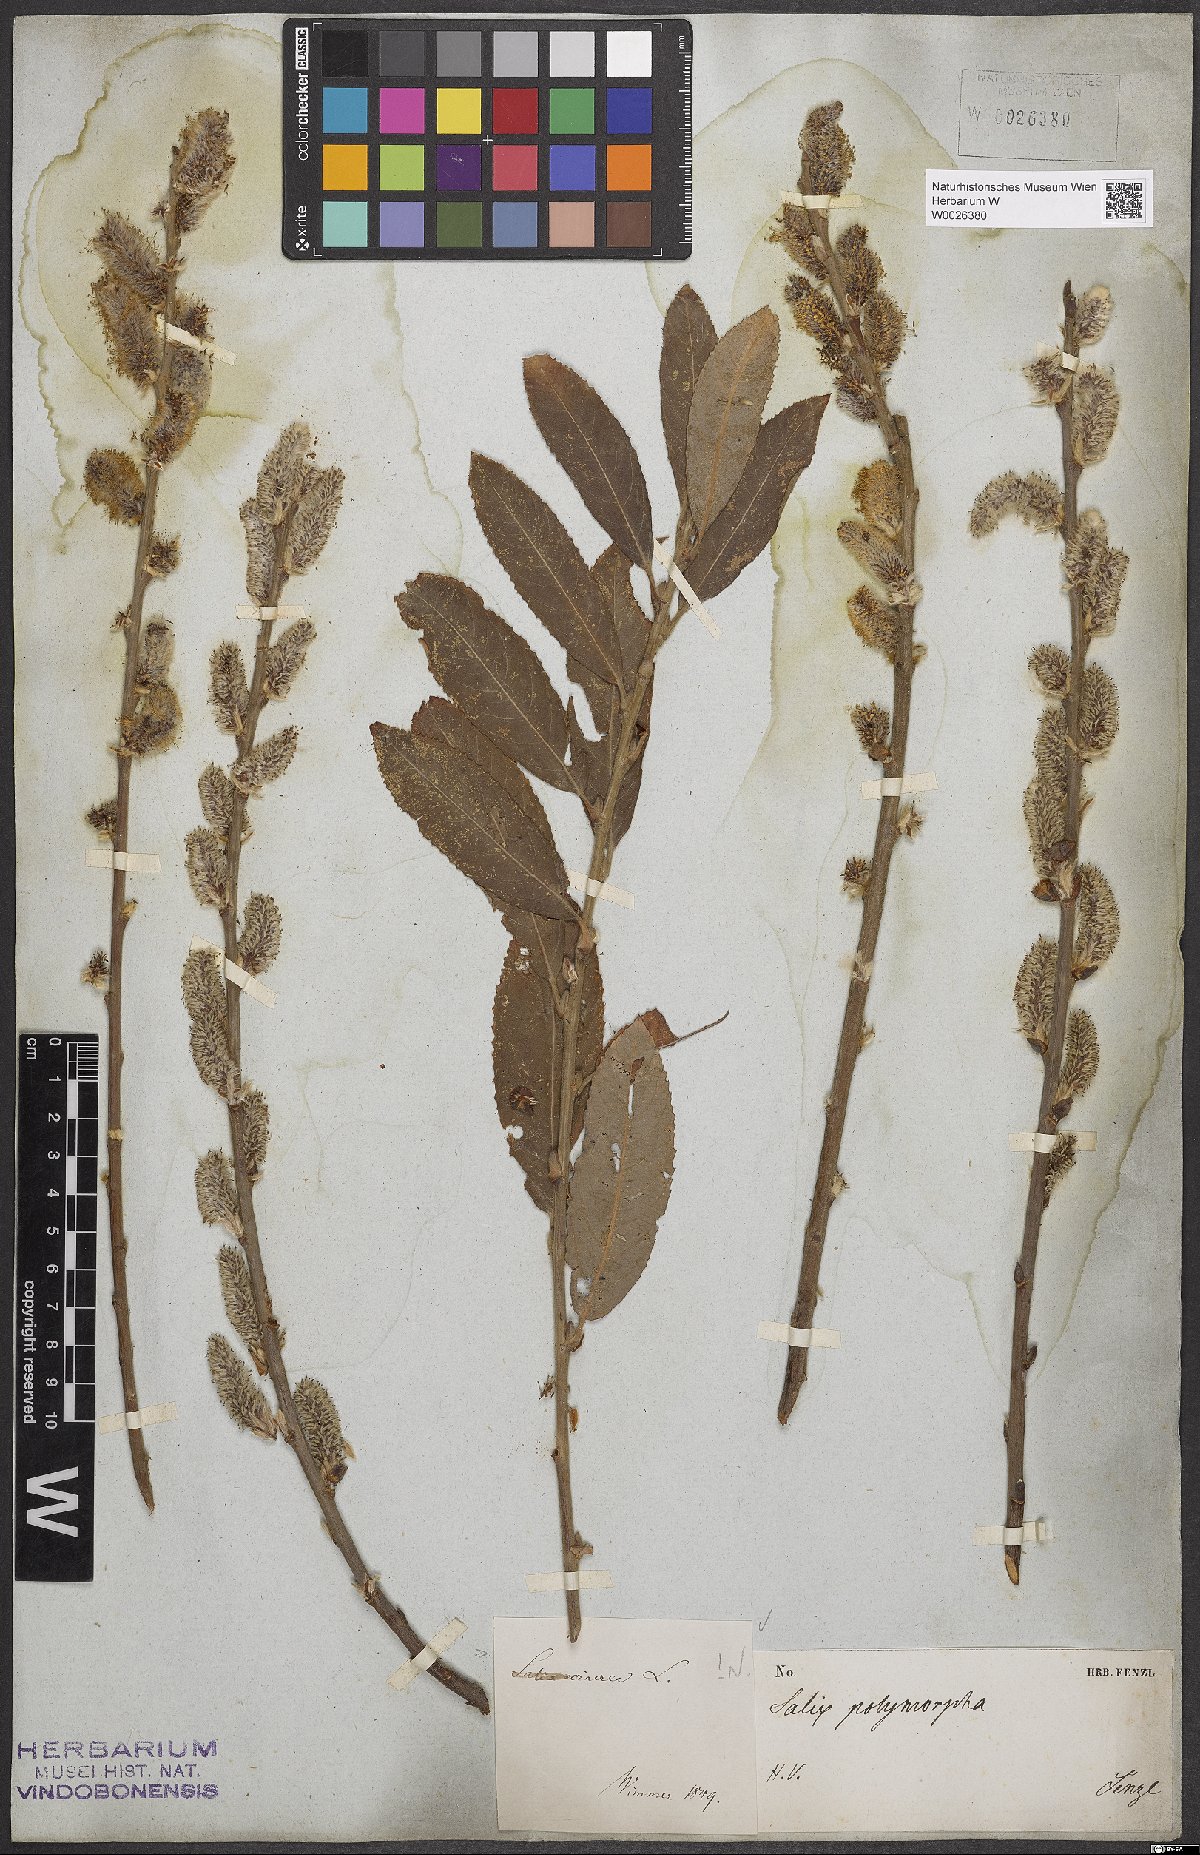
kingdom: Plantae
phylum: Tracheophyta
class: Magnoliopsida
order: Malpighiales
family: Salicaceae
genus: Salix
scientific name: Salix cinerea
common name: Common sallow
